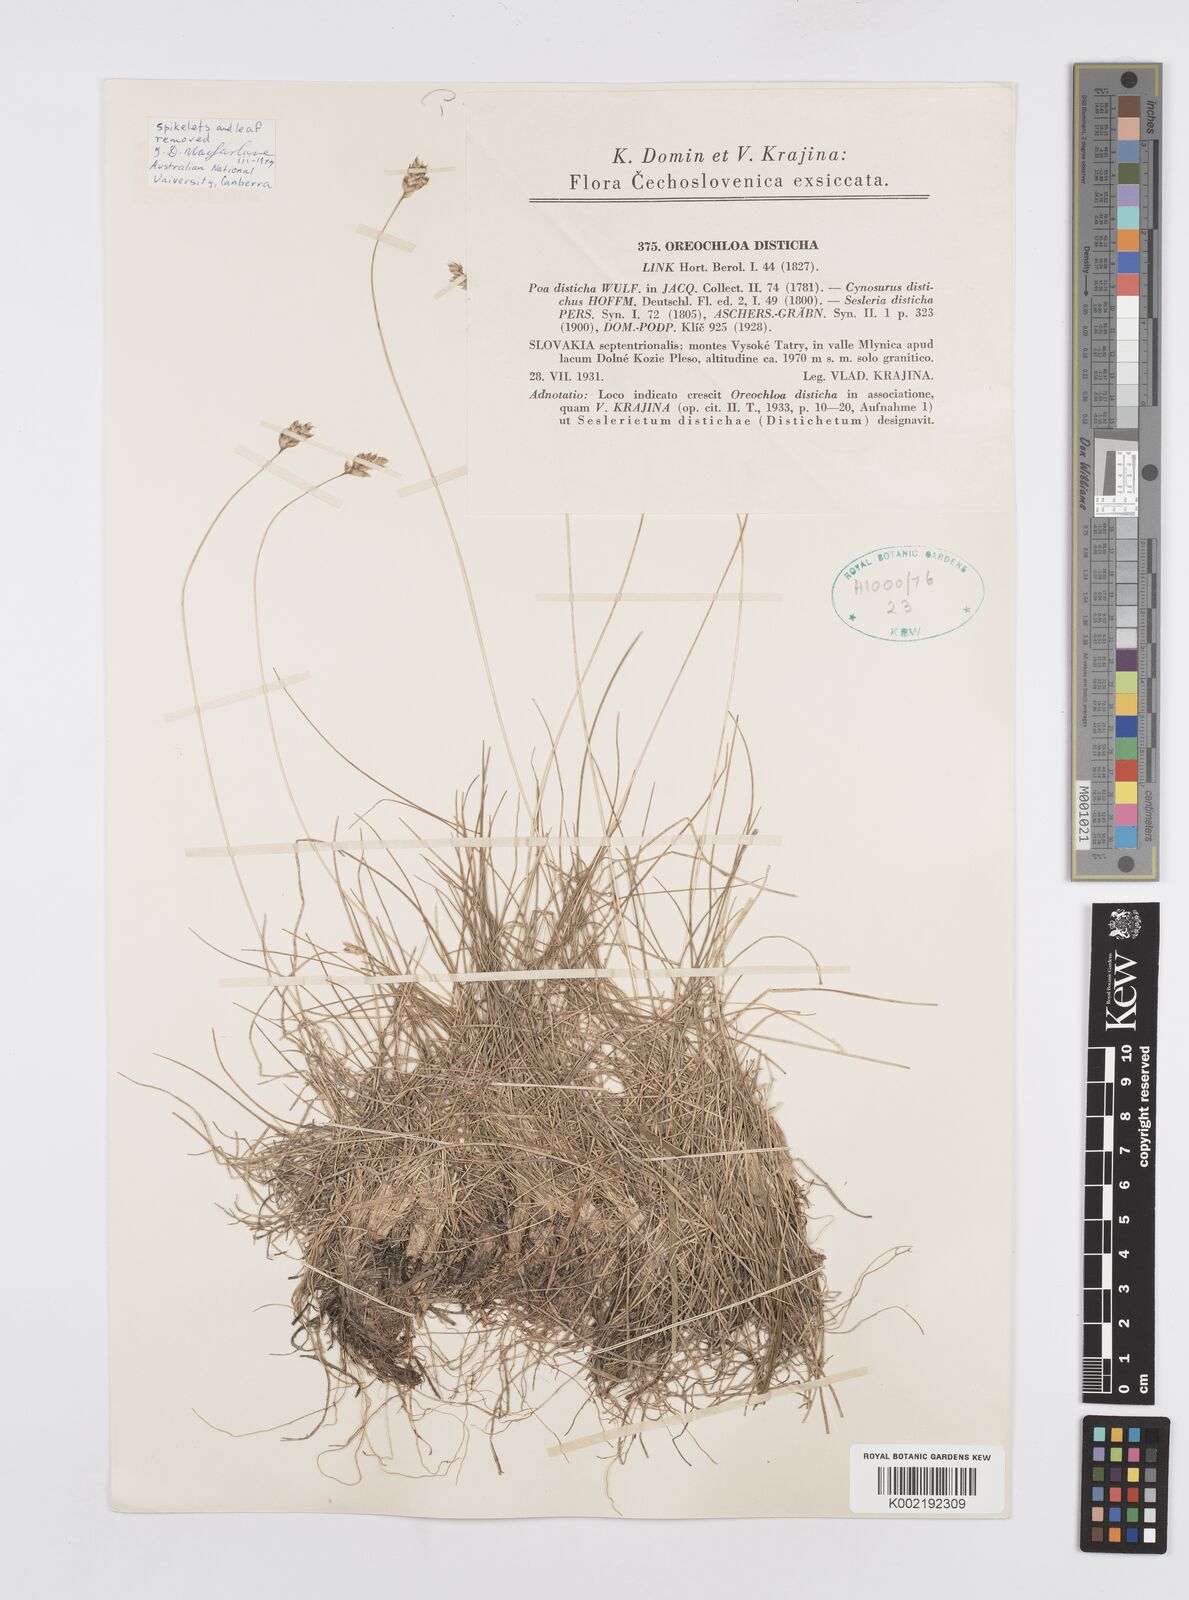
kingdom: Plantae
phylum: Tracheophyta
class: Liliopsida
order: Poales
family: Poaceae
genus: Oreochloa
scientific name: Oreochloa disticha
